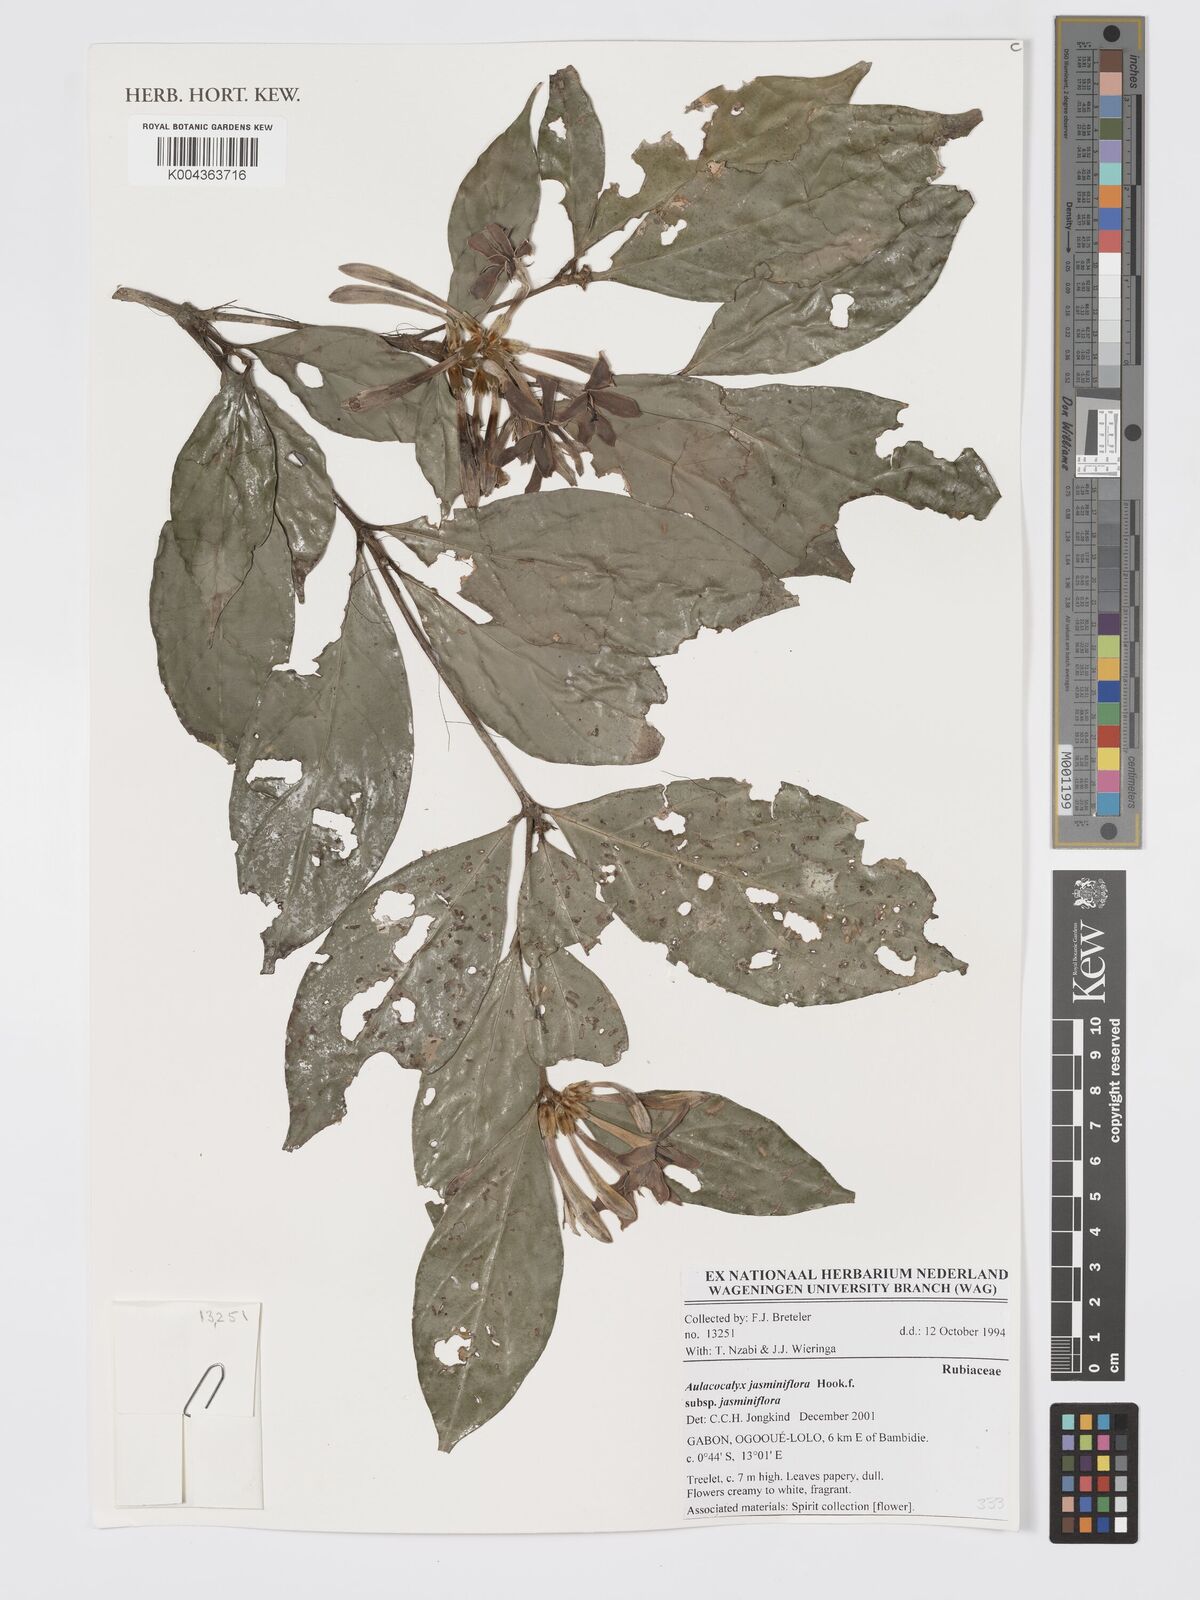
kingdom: Plantae
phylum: Tracheophyta
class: Magnoliopsida
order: Gentianales
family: Rubiaceae
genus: Aulacocalyx
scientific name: Aulacocalyx jasminiflora
